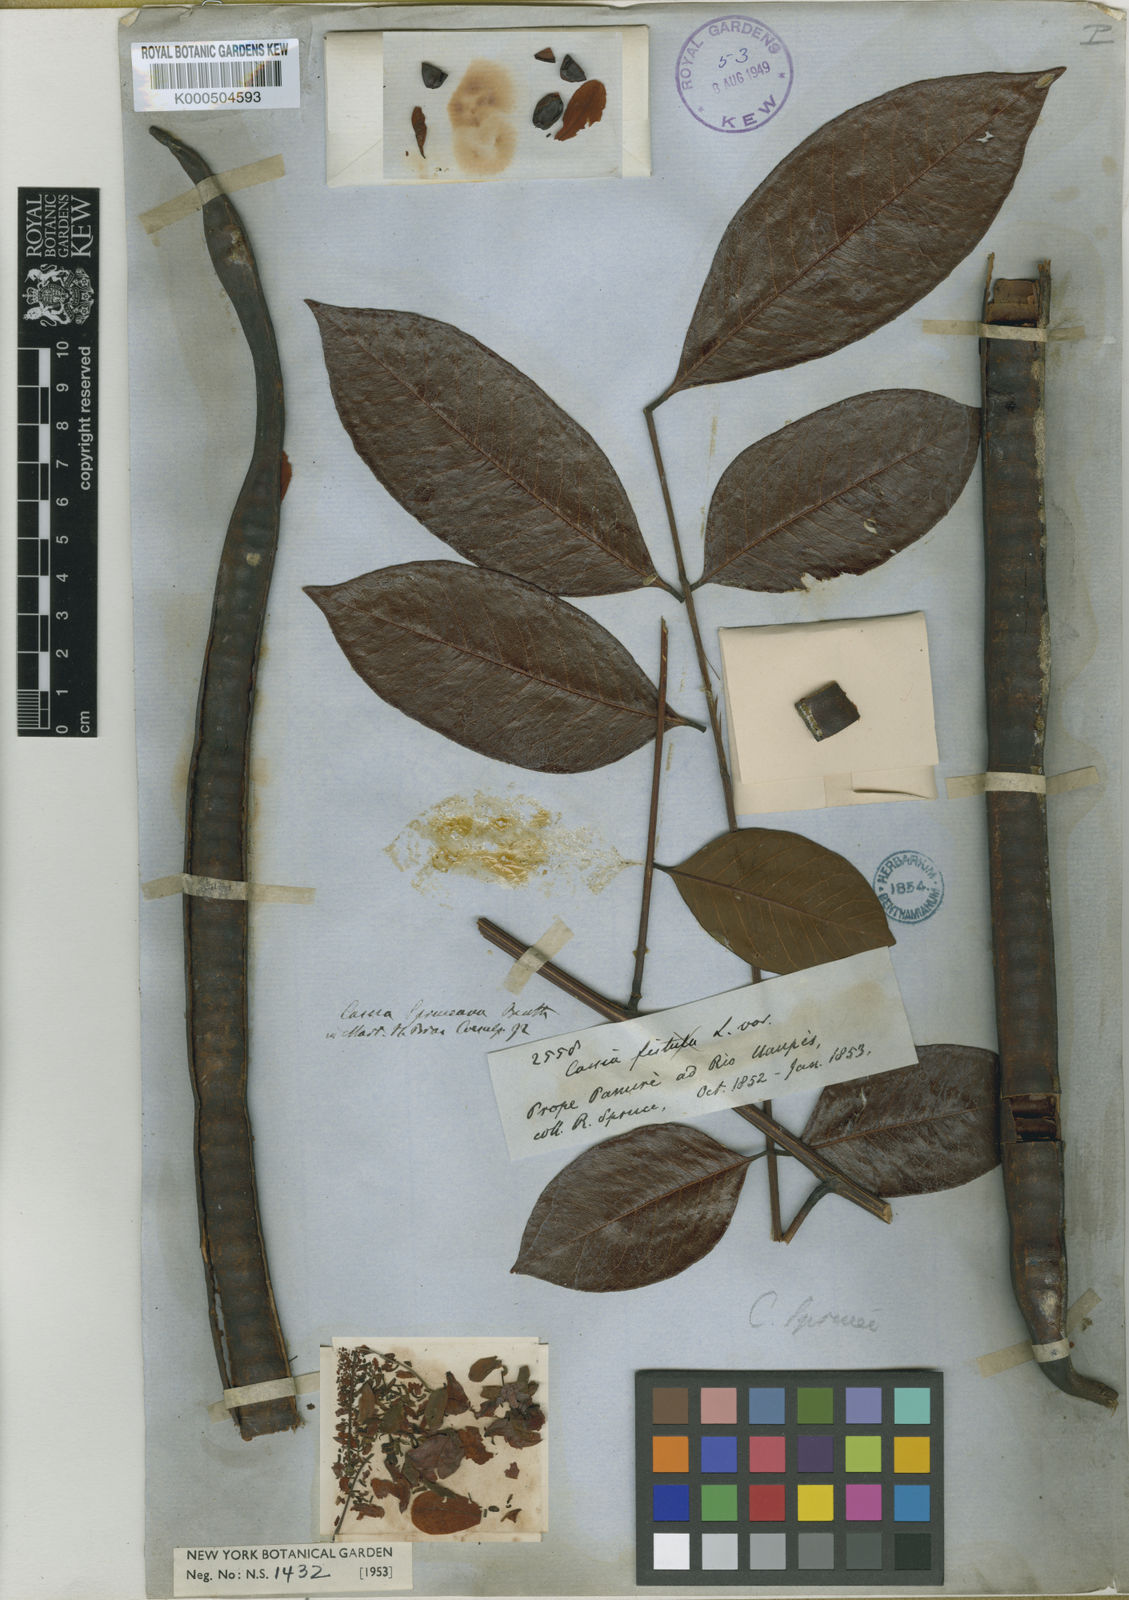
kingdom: Plantae
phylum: Tracheophyta
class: Magnoliopsida
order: Fabales
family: Fabaceae
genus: Cassia
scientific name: Cassia spruceana
